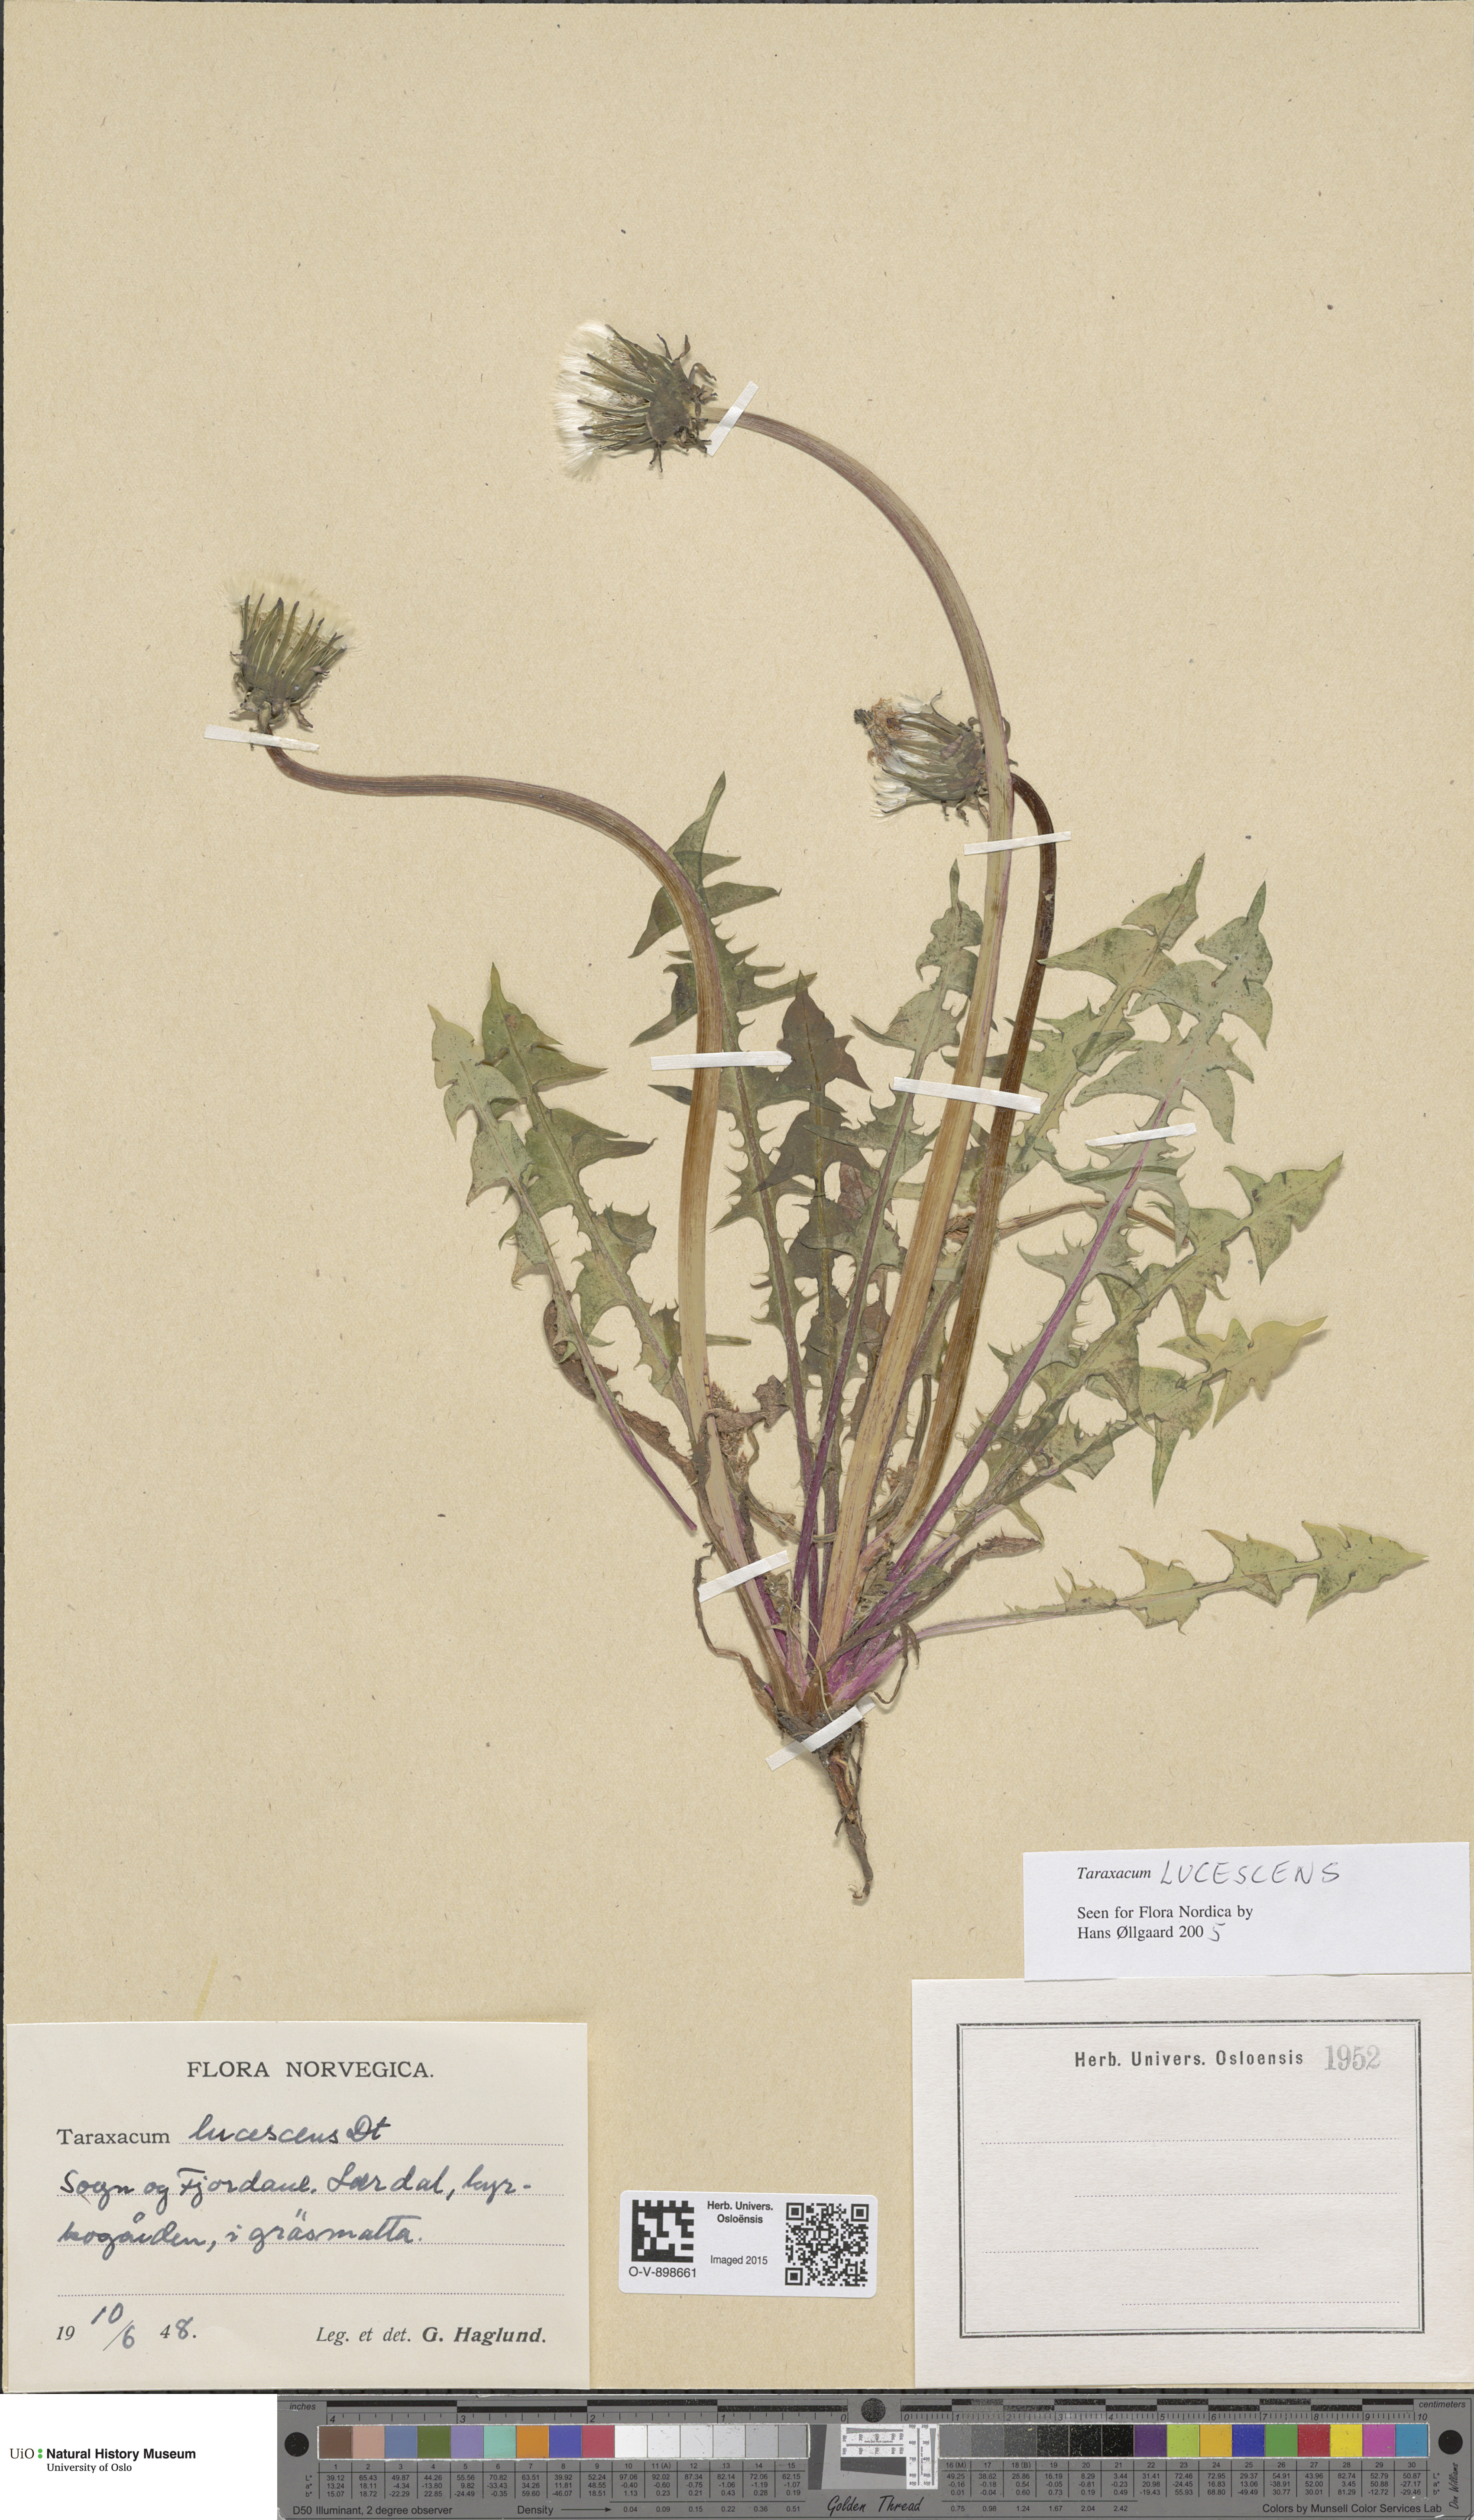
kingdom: Plantae
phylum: Tracheophyta
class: Magnoliopsida
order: Asterales
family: Asteraceae
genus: Taraxacum
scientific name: Taraxacum lucescens
